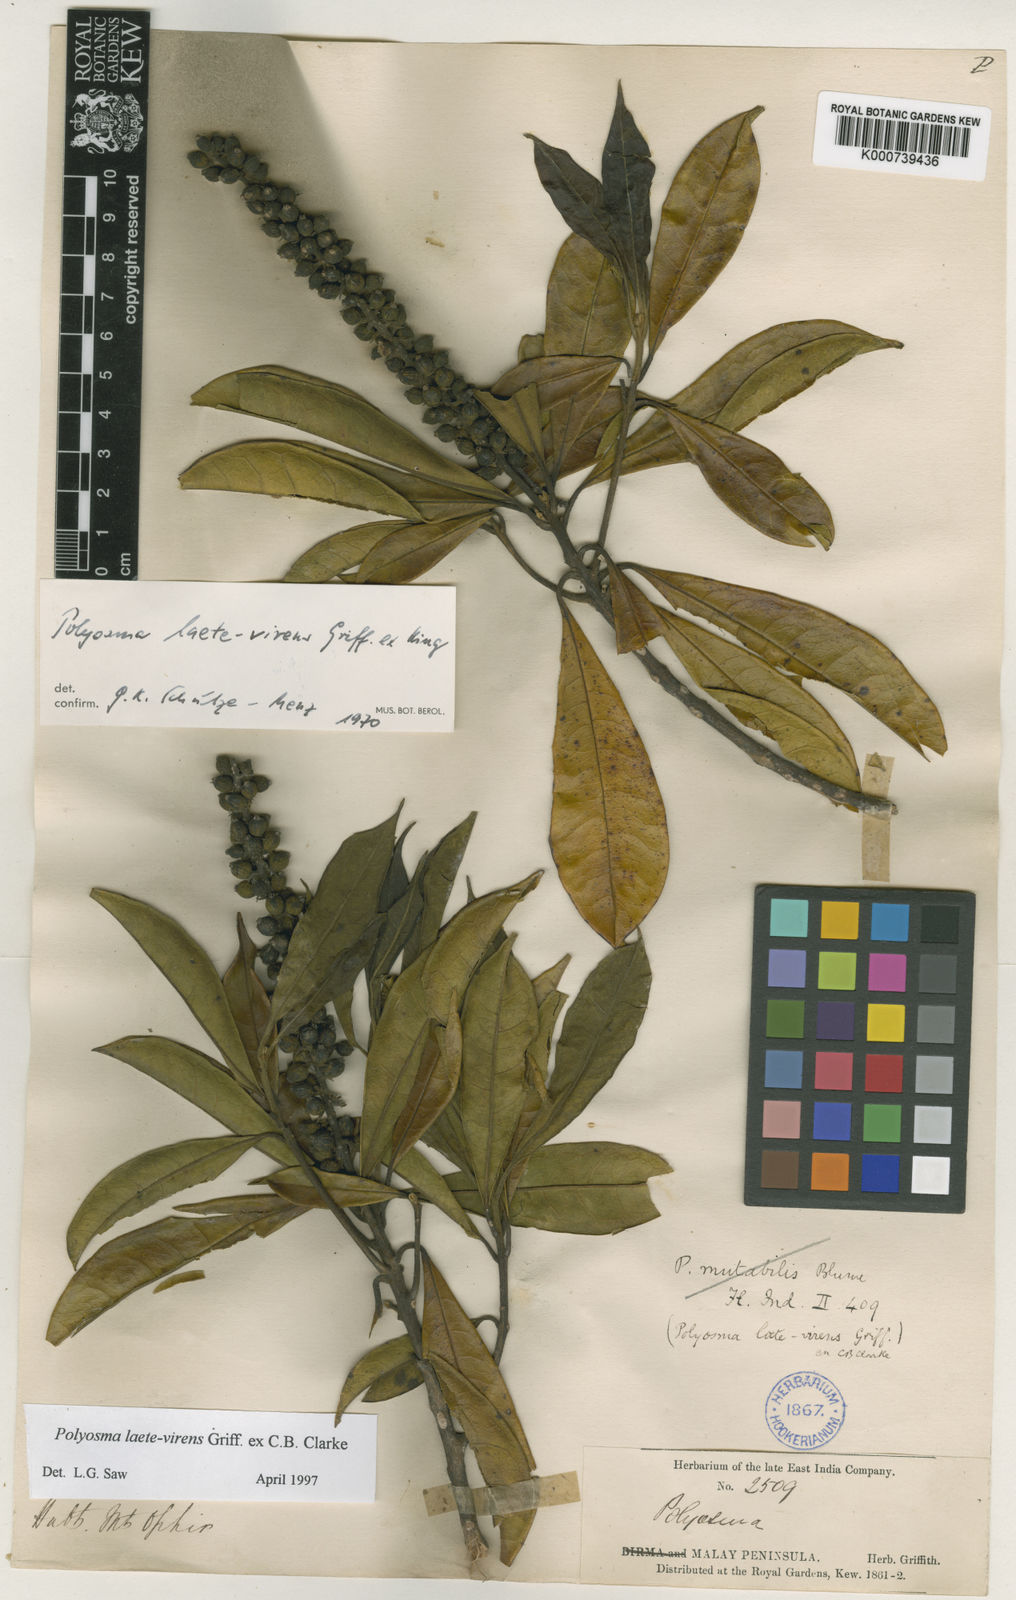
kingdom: Plantae
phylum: Tracheophyta
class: Magnoliopsida
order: Escalloniales
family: Escalloniaceae
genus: Polyosma
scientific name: Polyosma
